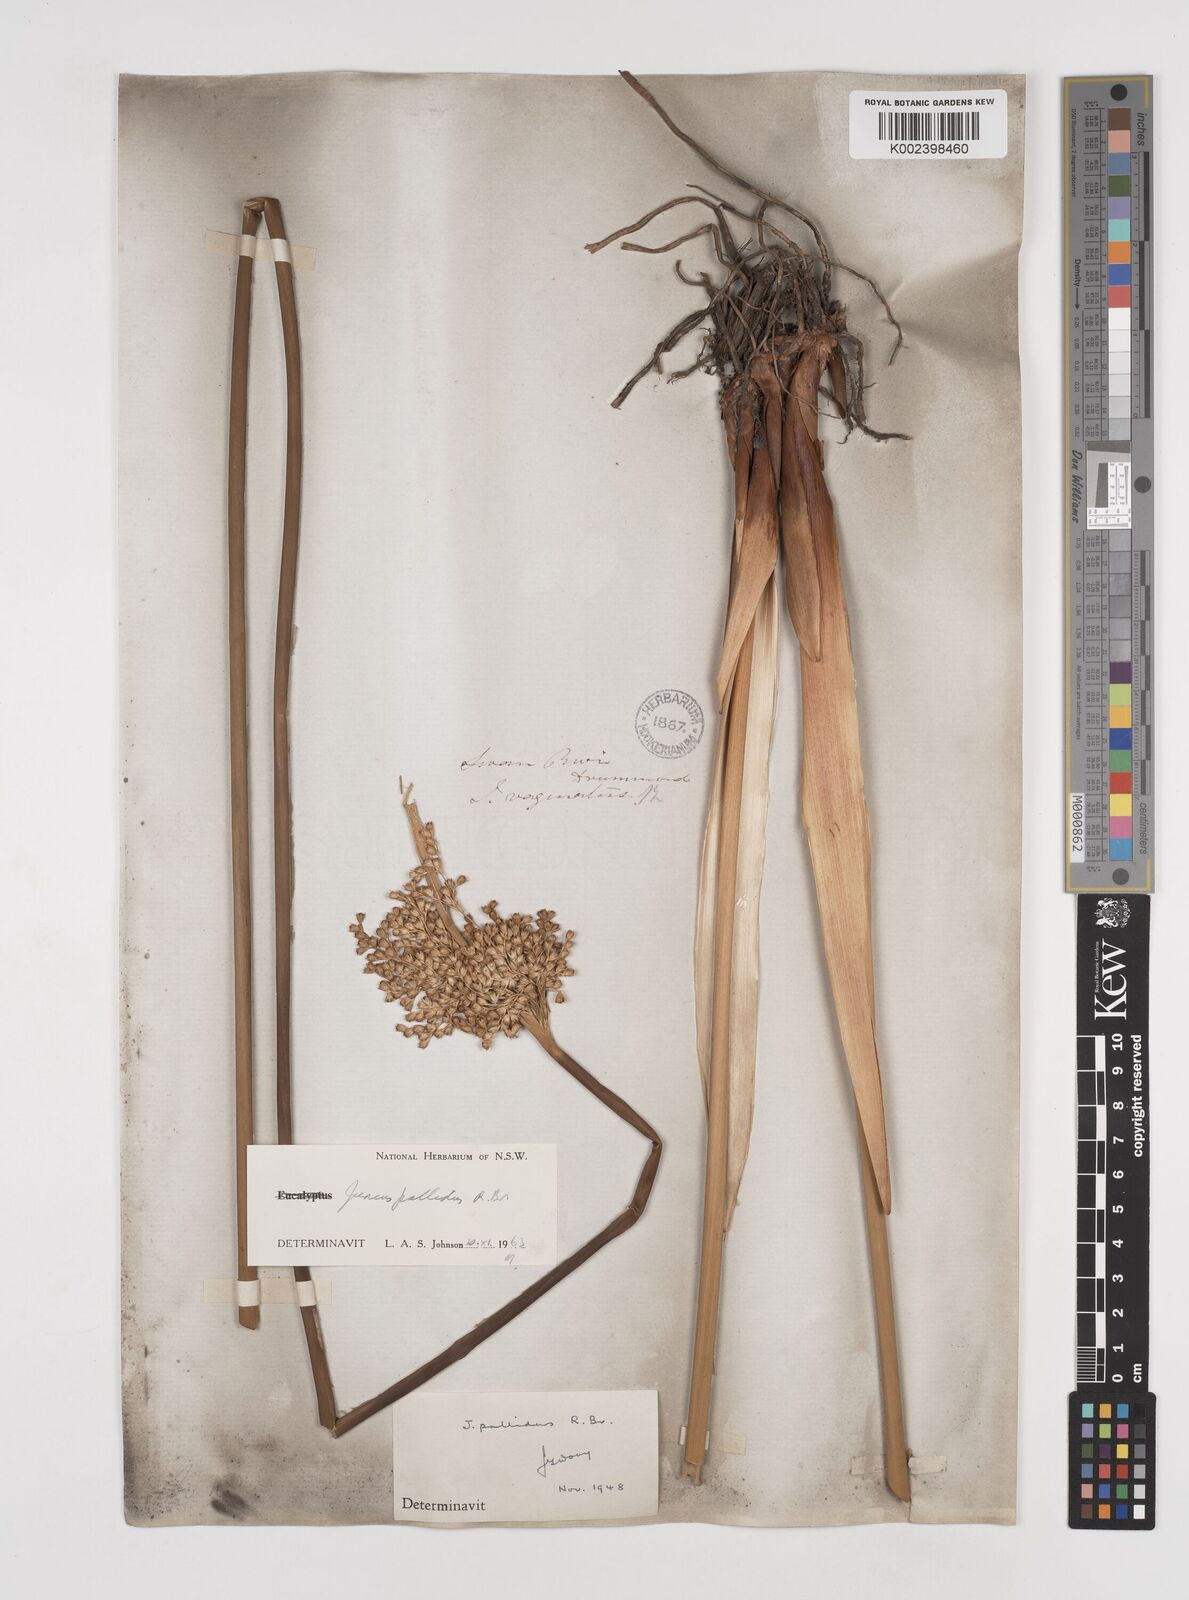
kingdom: Plantae
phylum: Tracheophyta
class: Liliopsida
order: Poales
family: Juncaceae
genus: Juncus
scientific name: Juncus pallidus
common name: Great soft-rush
